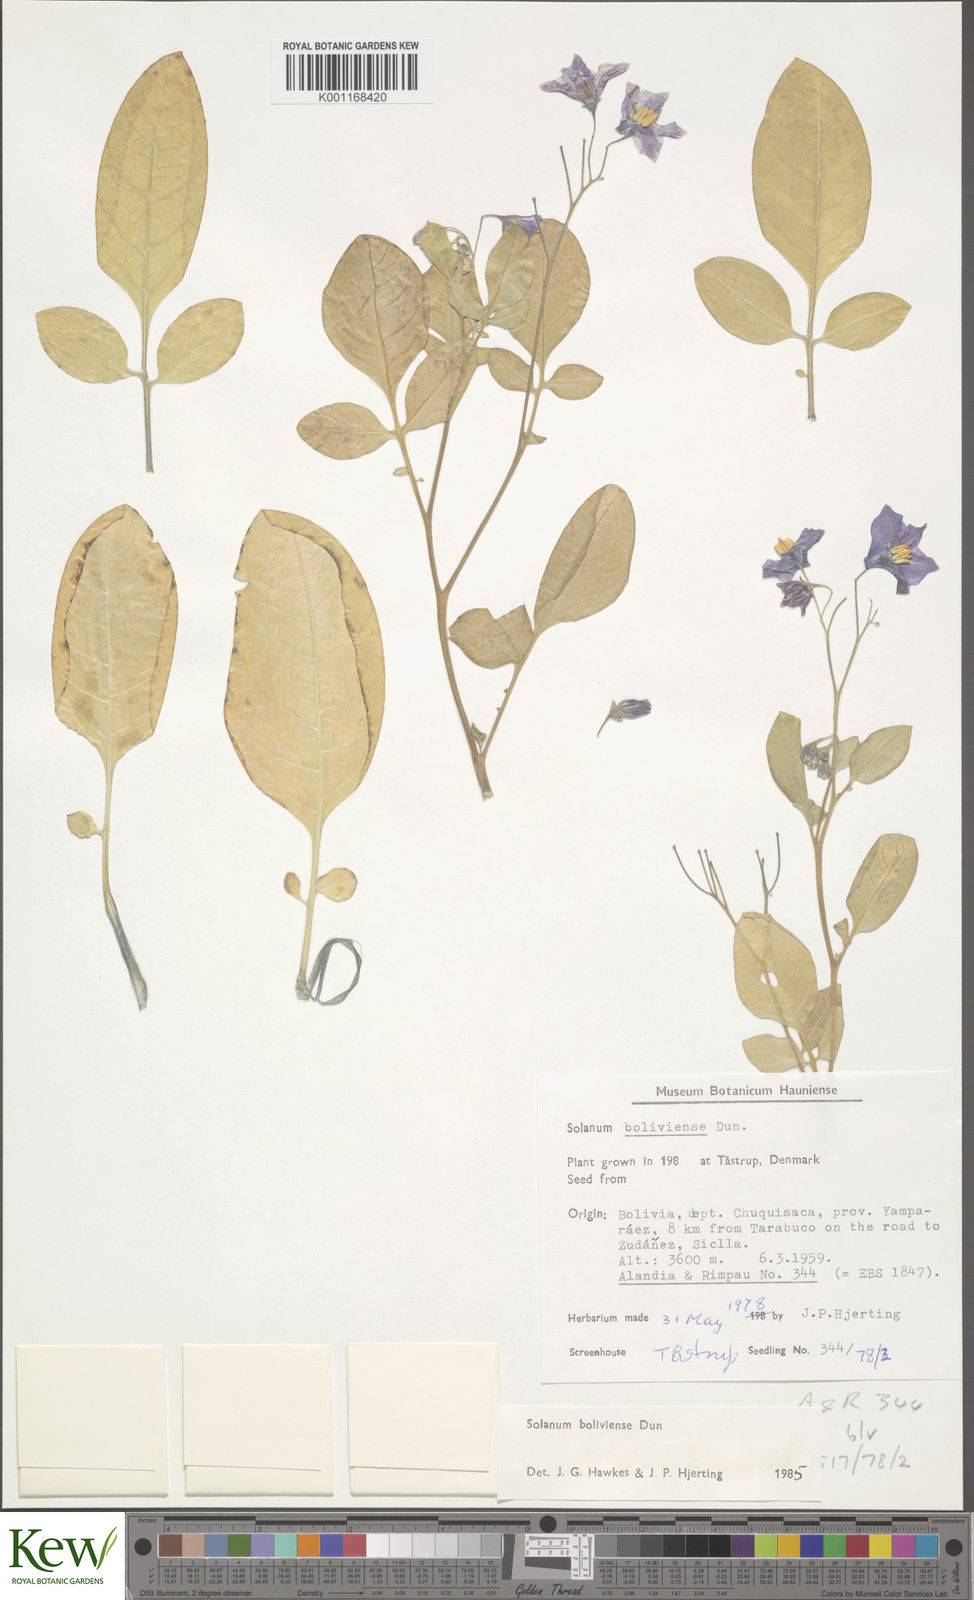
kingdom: Plantae
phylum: Tracheophyta
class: Magnoliopsida
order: Solanales
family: Solanaceae
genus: Solanum
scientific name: Solanum boliviense
